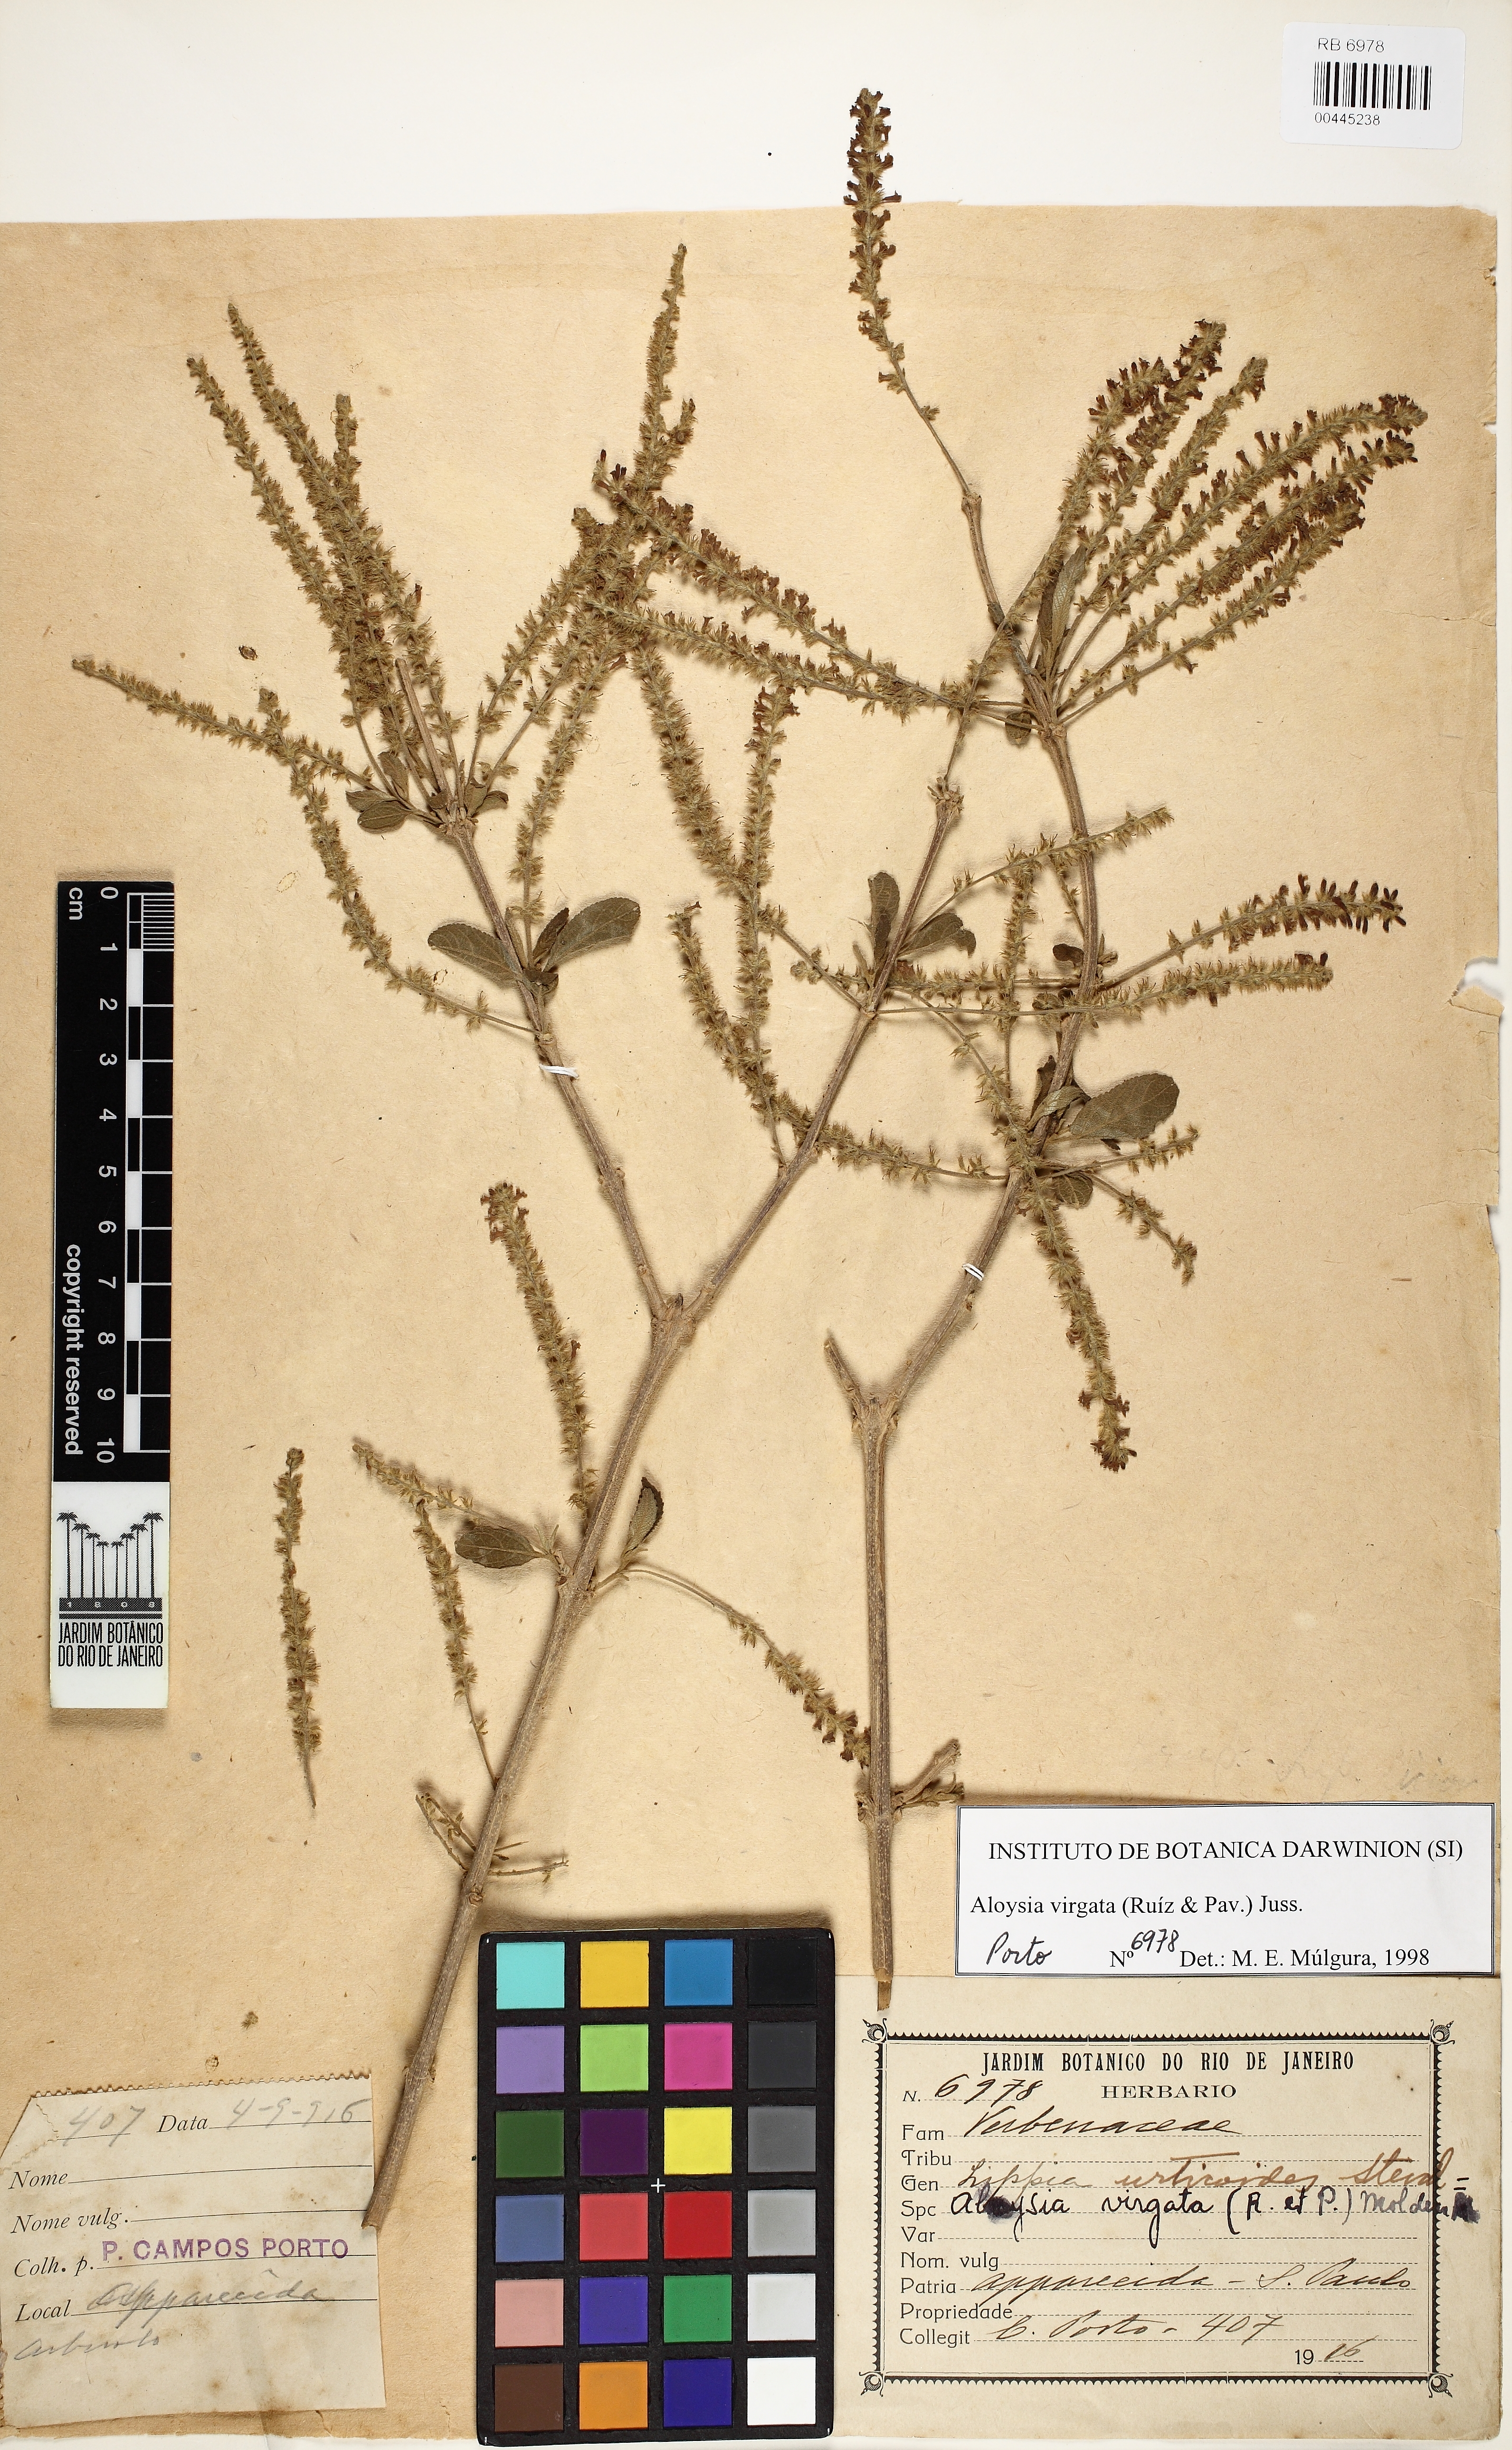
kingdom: Plantae
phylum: Tracheophyta
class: Magnoliopsida
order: Lamiales
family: Verbenaceae
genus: Aloysia
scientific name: Aloysia virgata
